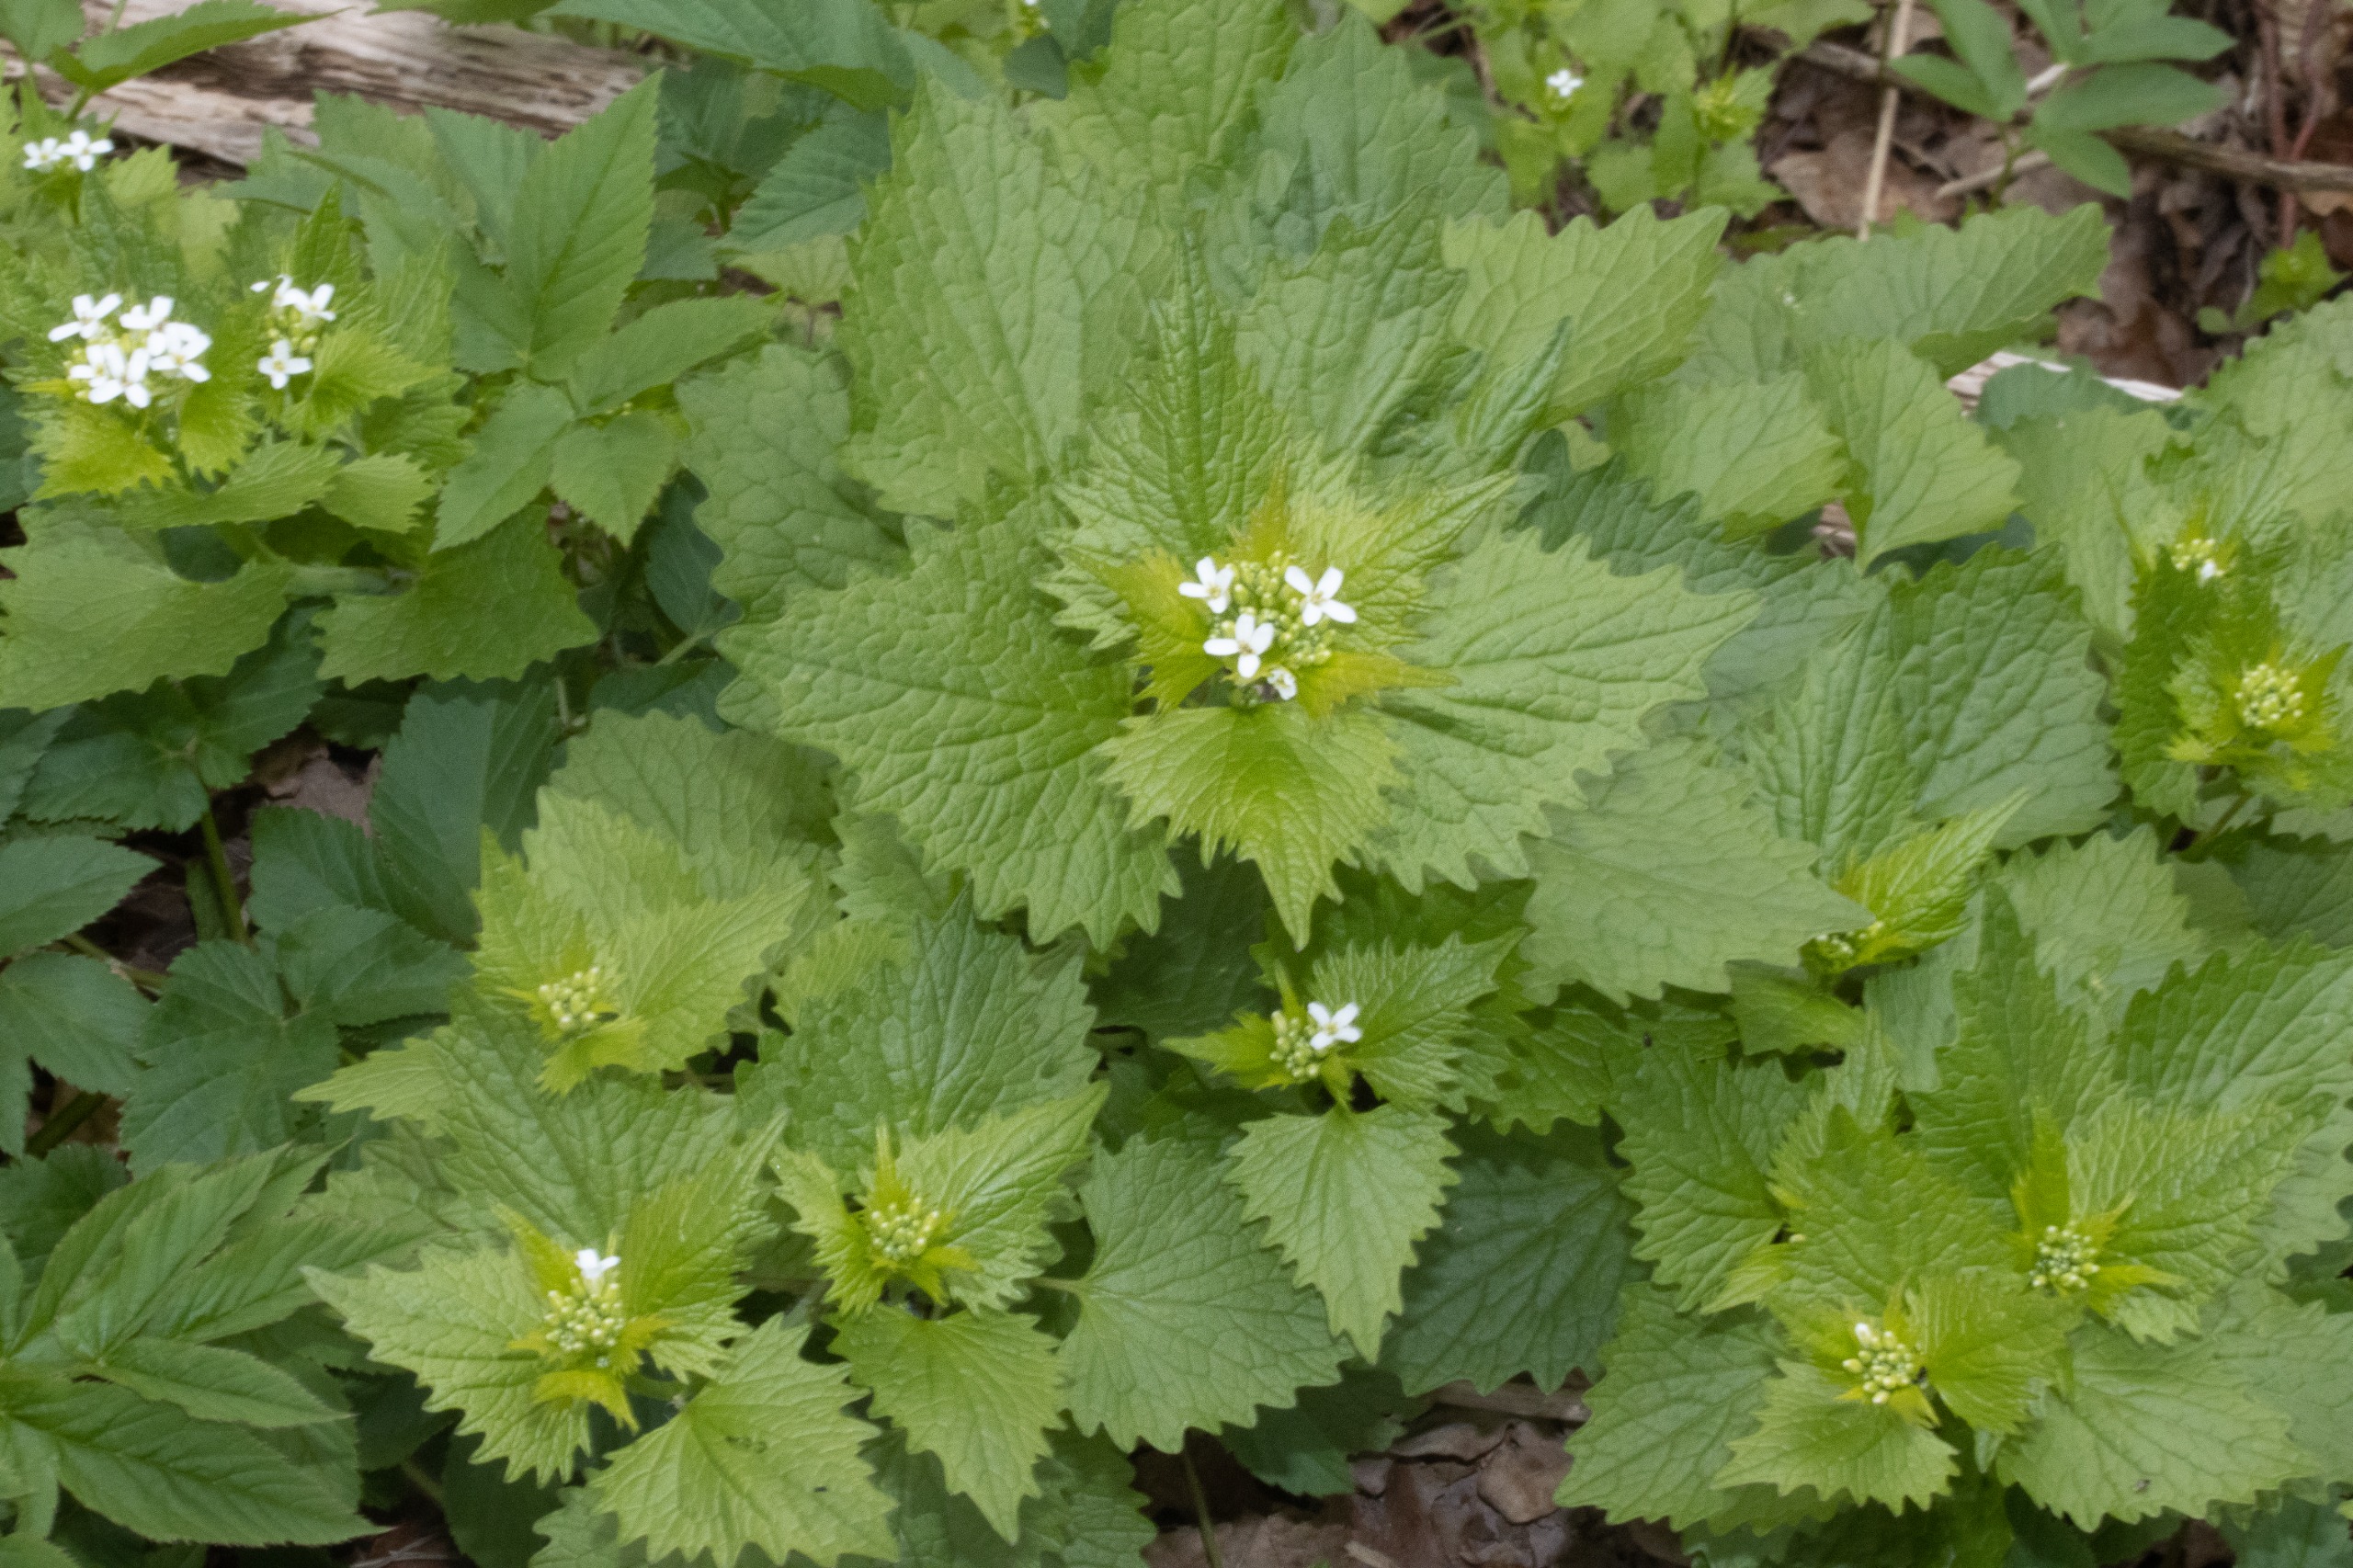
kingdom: Plantae
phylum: Tracheophyta
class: Magnoliopsida
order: Brassicales
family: Brassicaceae
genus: Alliaria
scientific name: Alliaria petiolata
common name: Løgkarse
